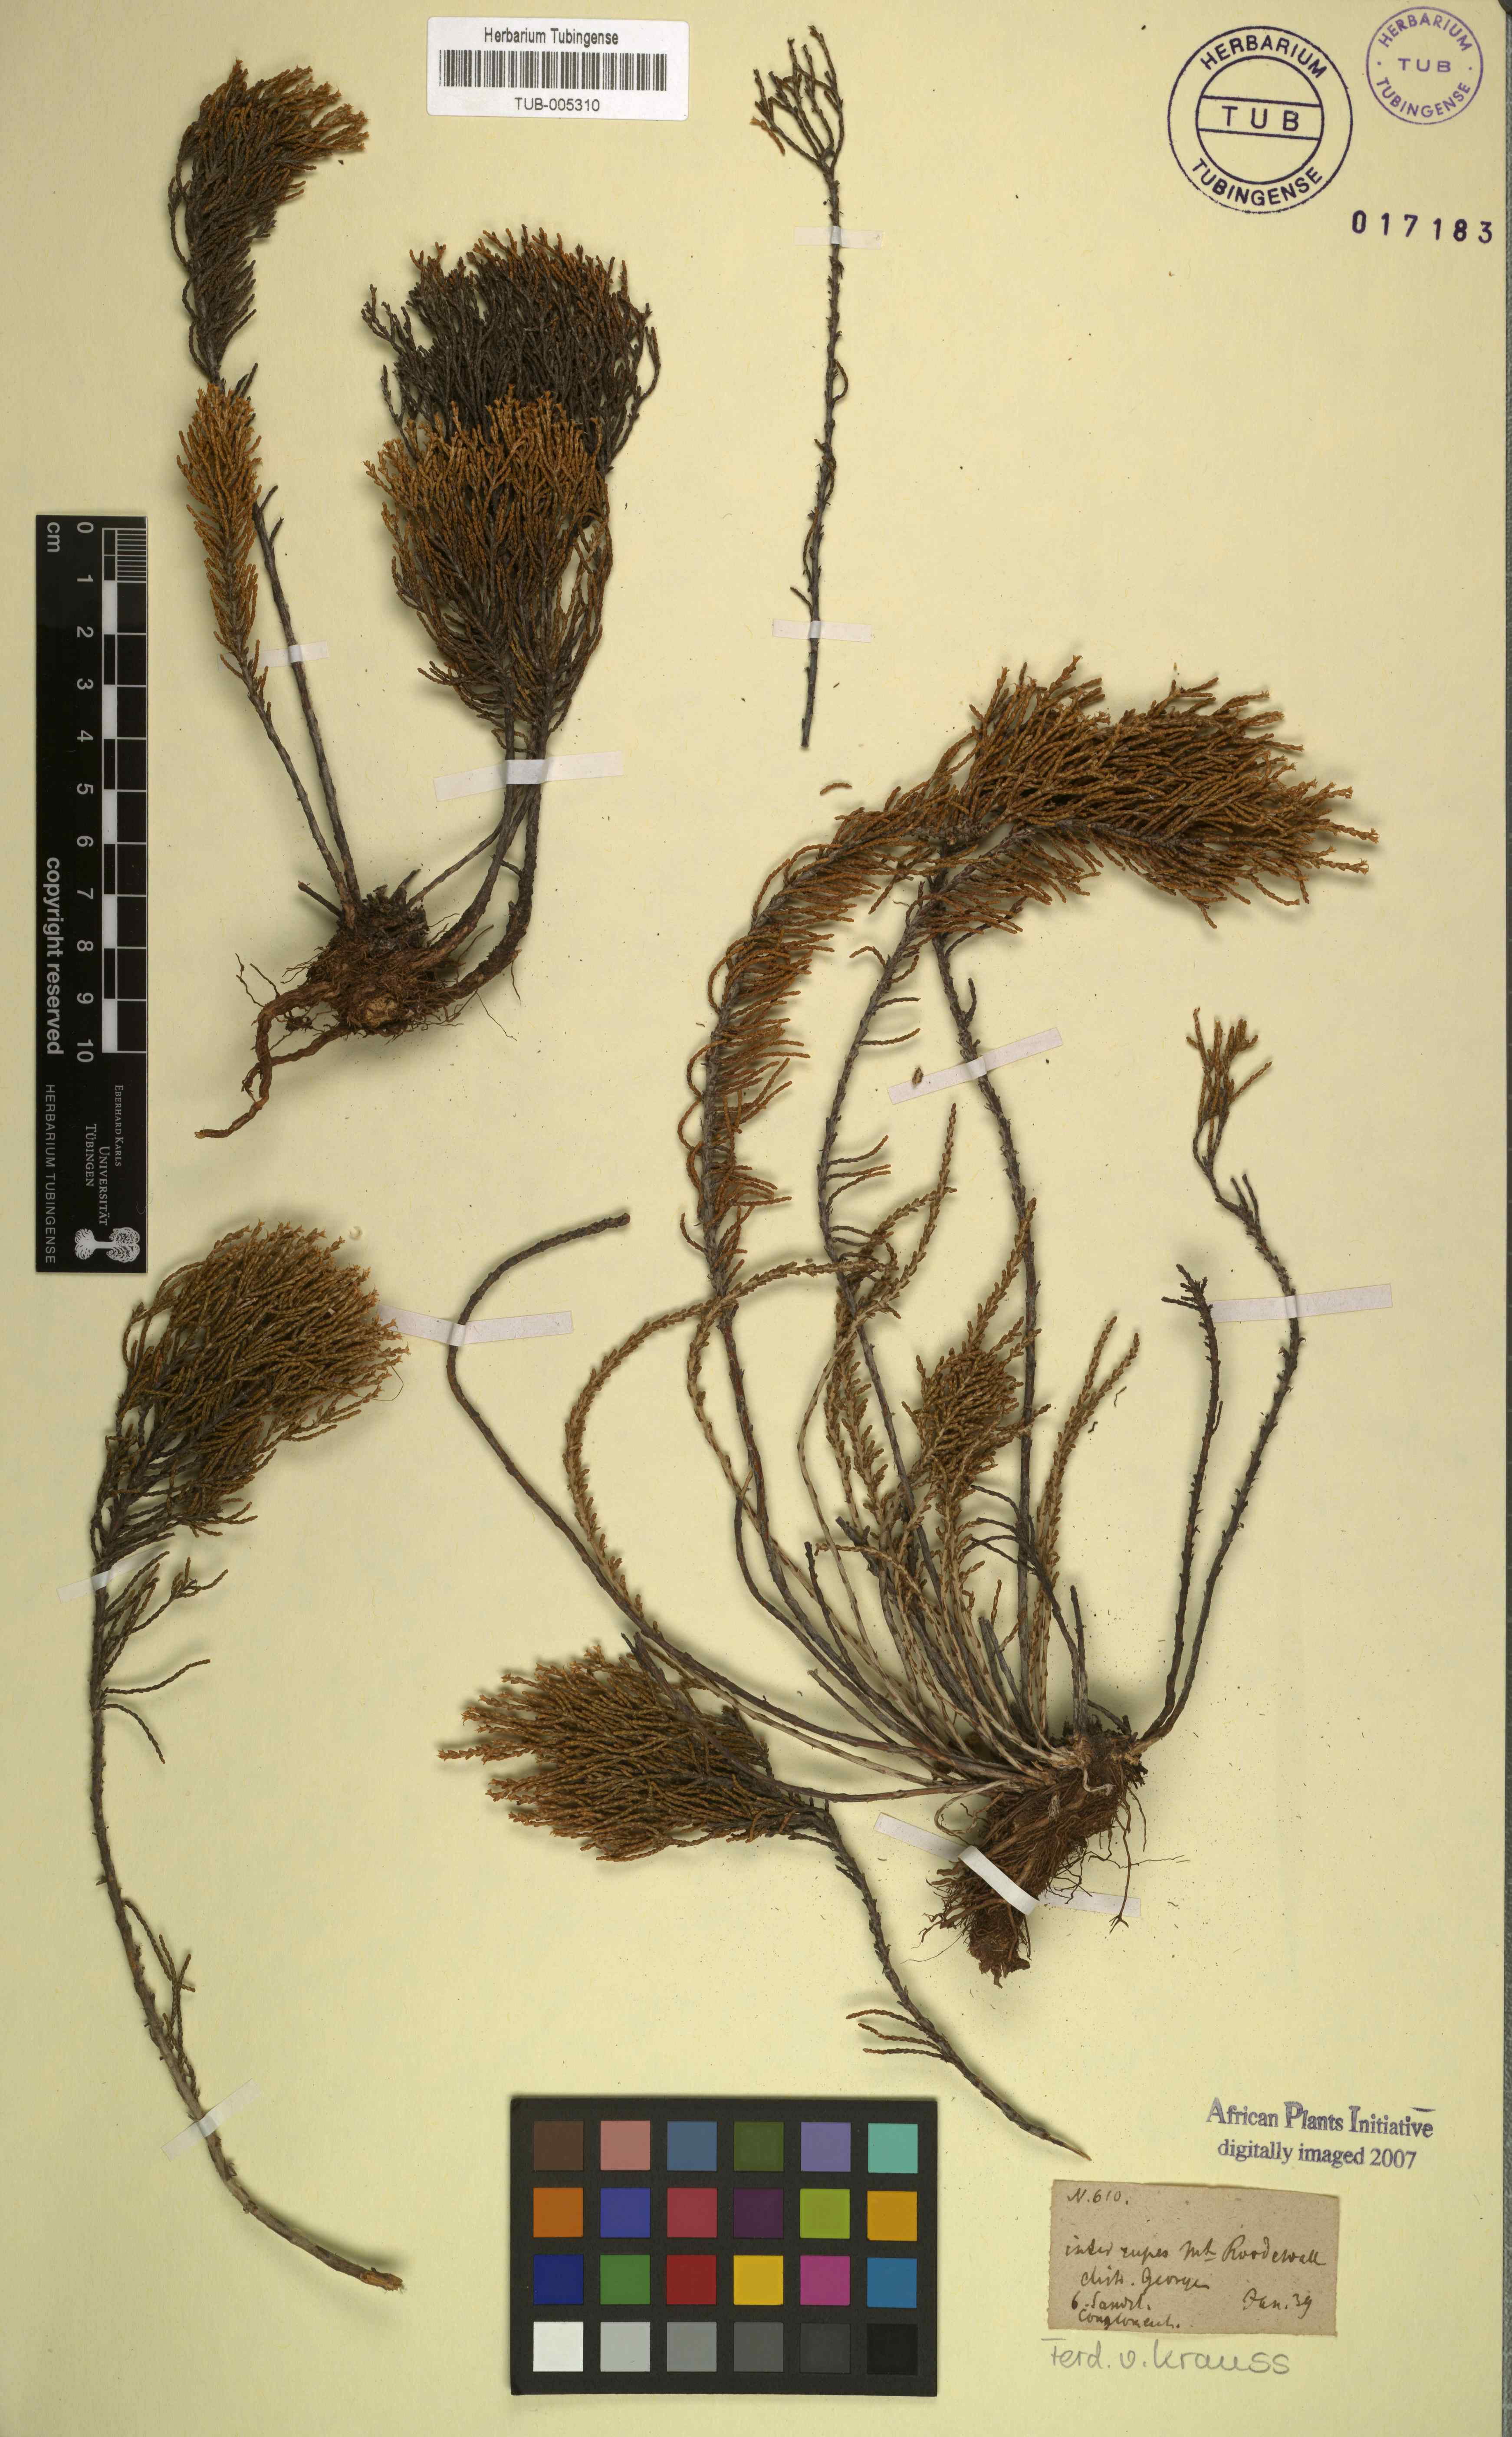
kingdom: Plantae
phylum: Tracheophyta
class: Magnoliopsida
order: Asterales
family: Asteraceae
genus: Dolichothrix
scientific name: Dolichothrix ericoides
